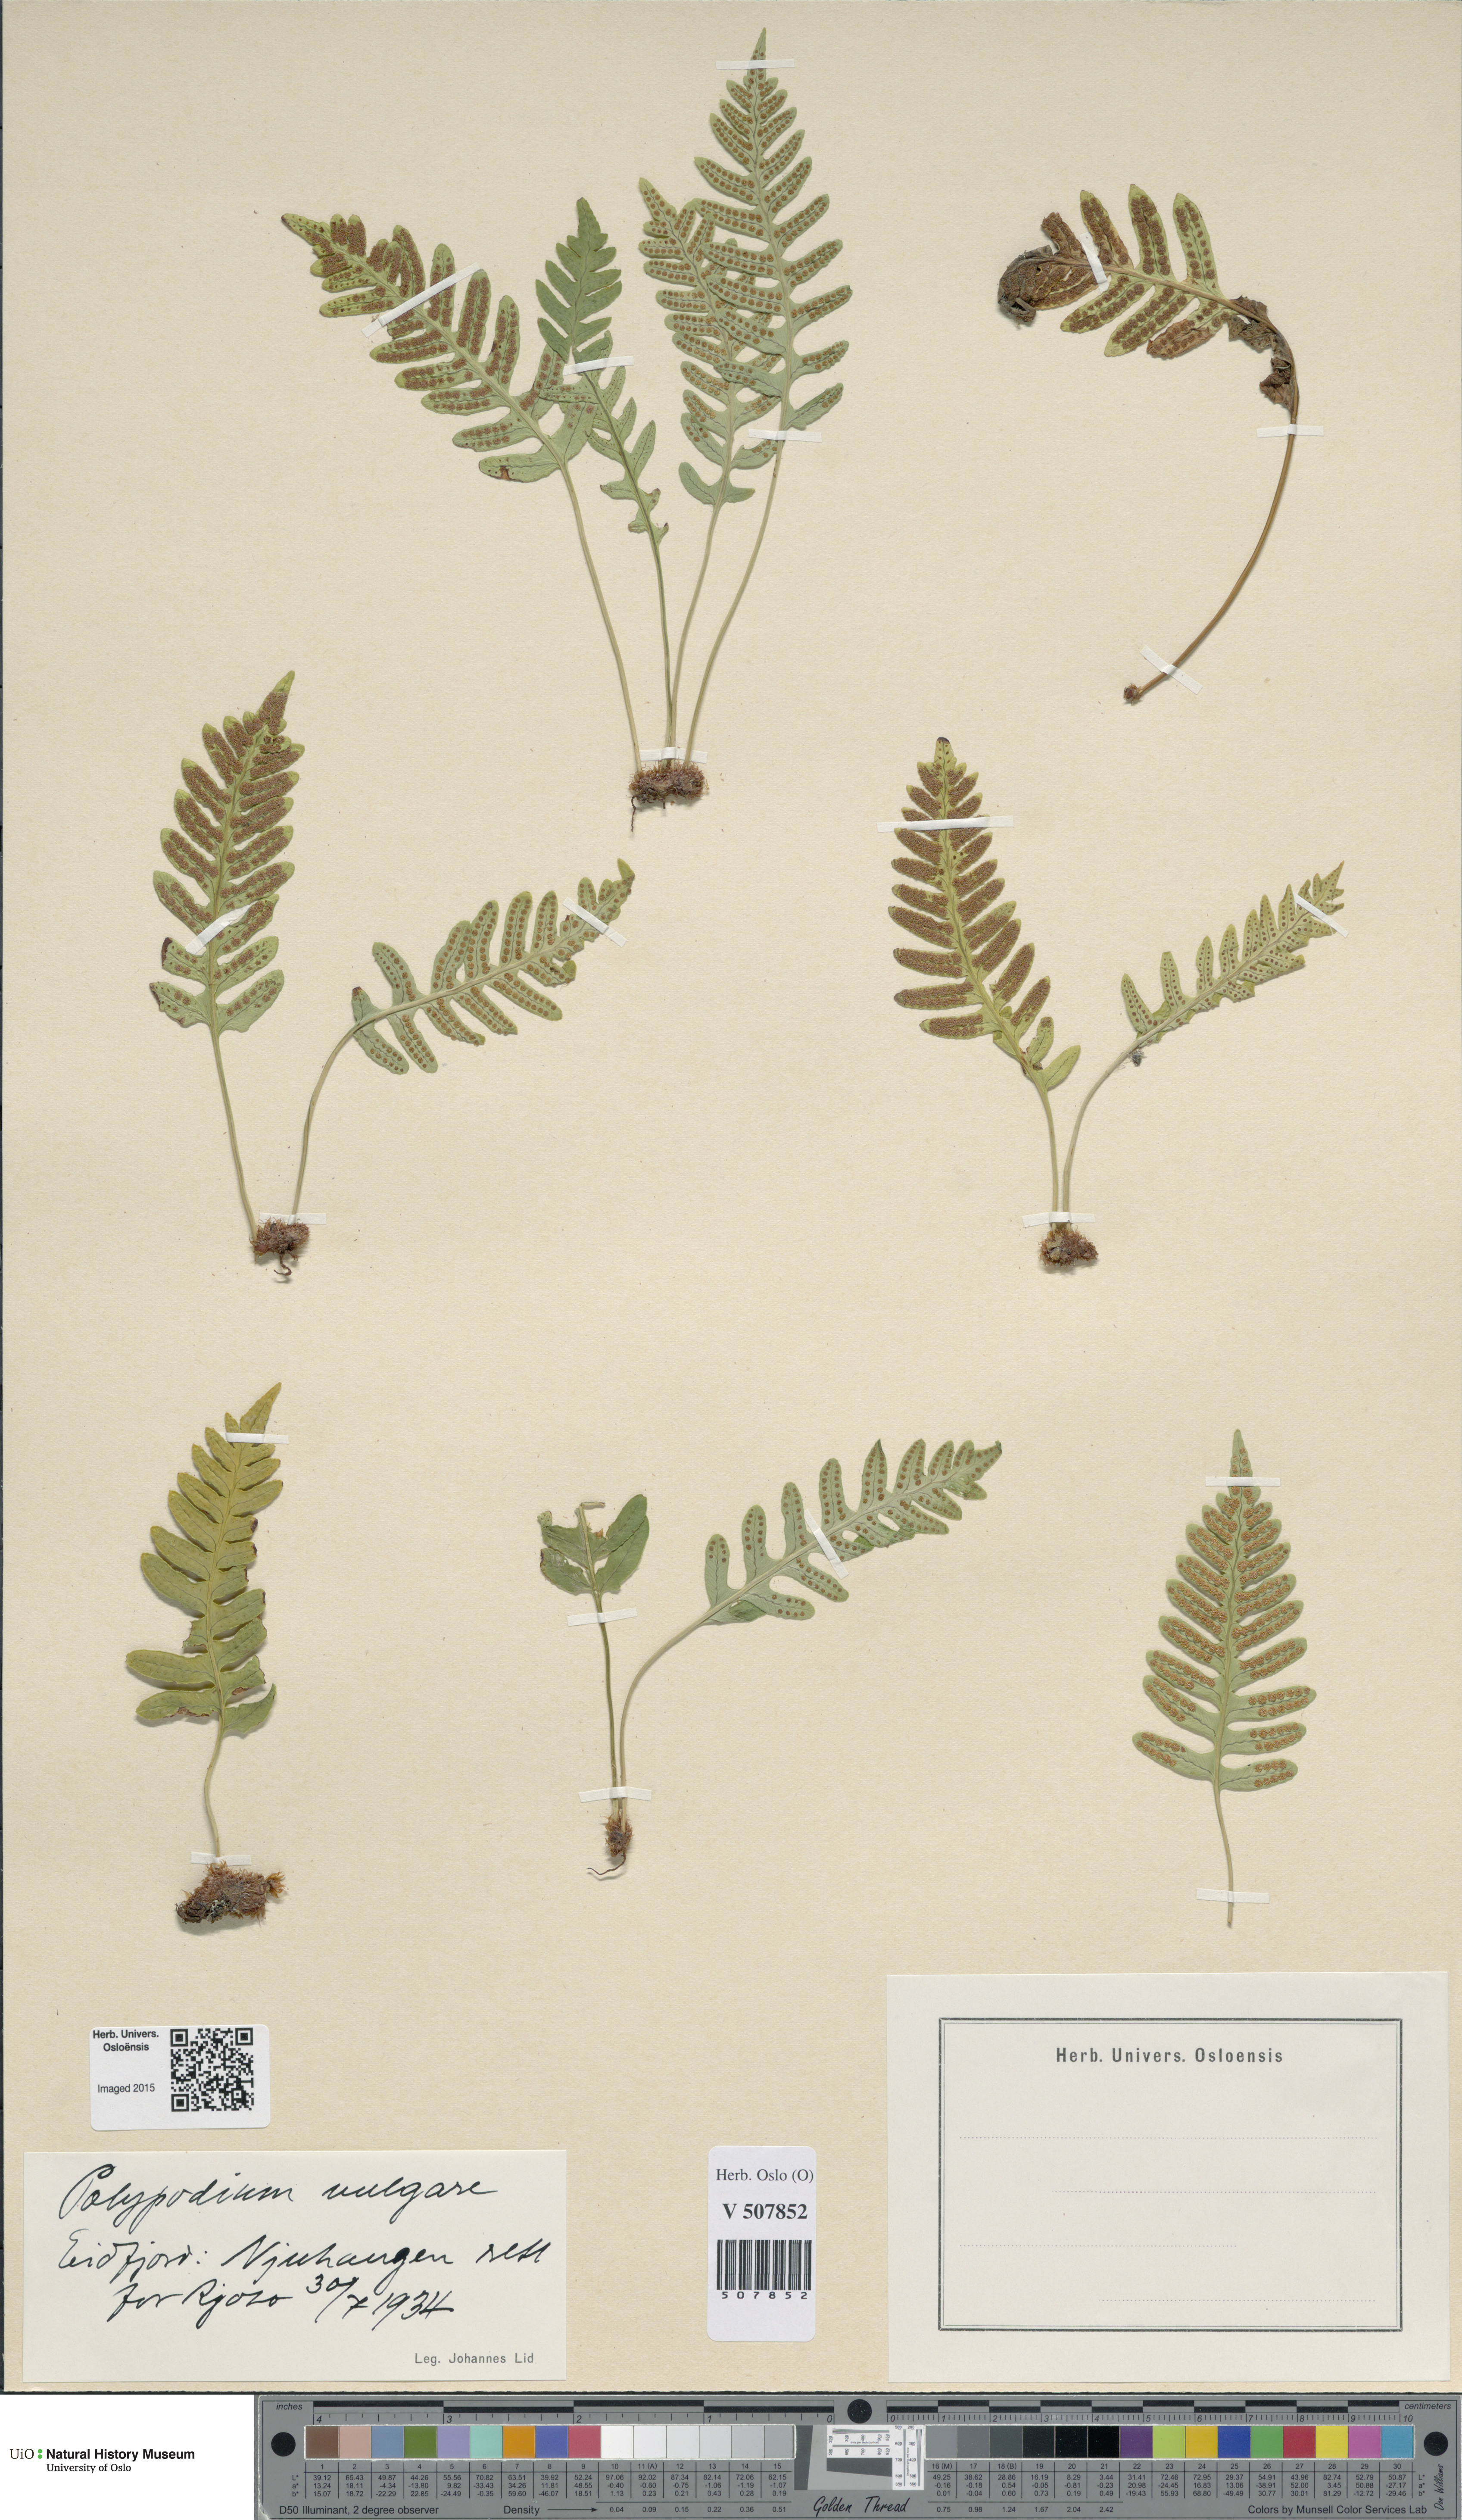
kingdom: Plantae
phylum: Tracheophyta
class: Polypodiopsida
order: Polypodiales
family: Polypodiaceae
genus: Polypodium
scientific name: Polypodium vulgare
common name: Common polypody
